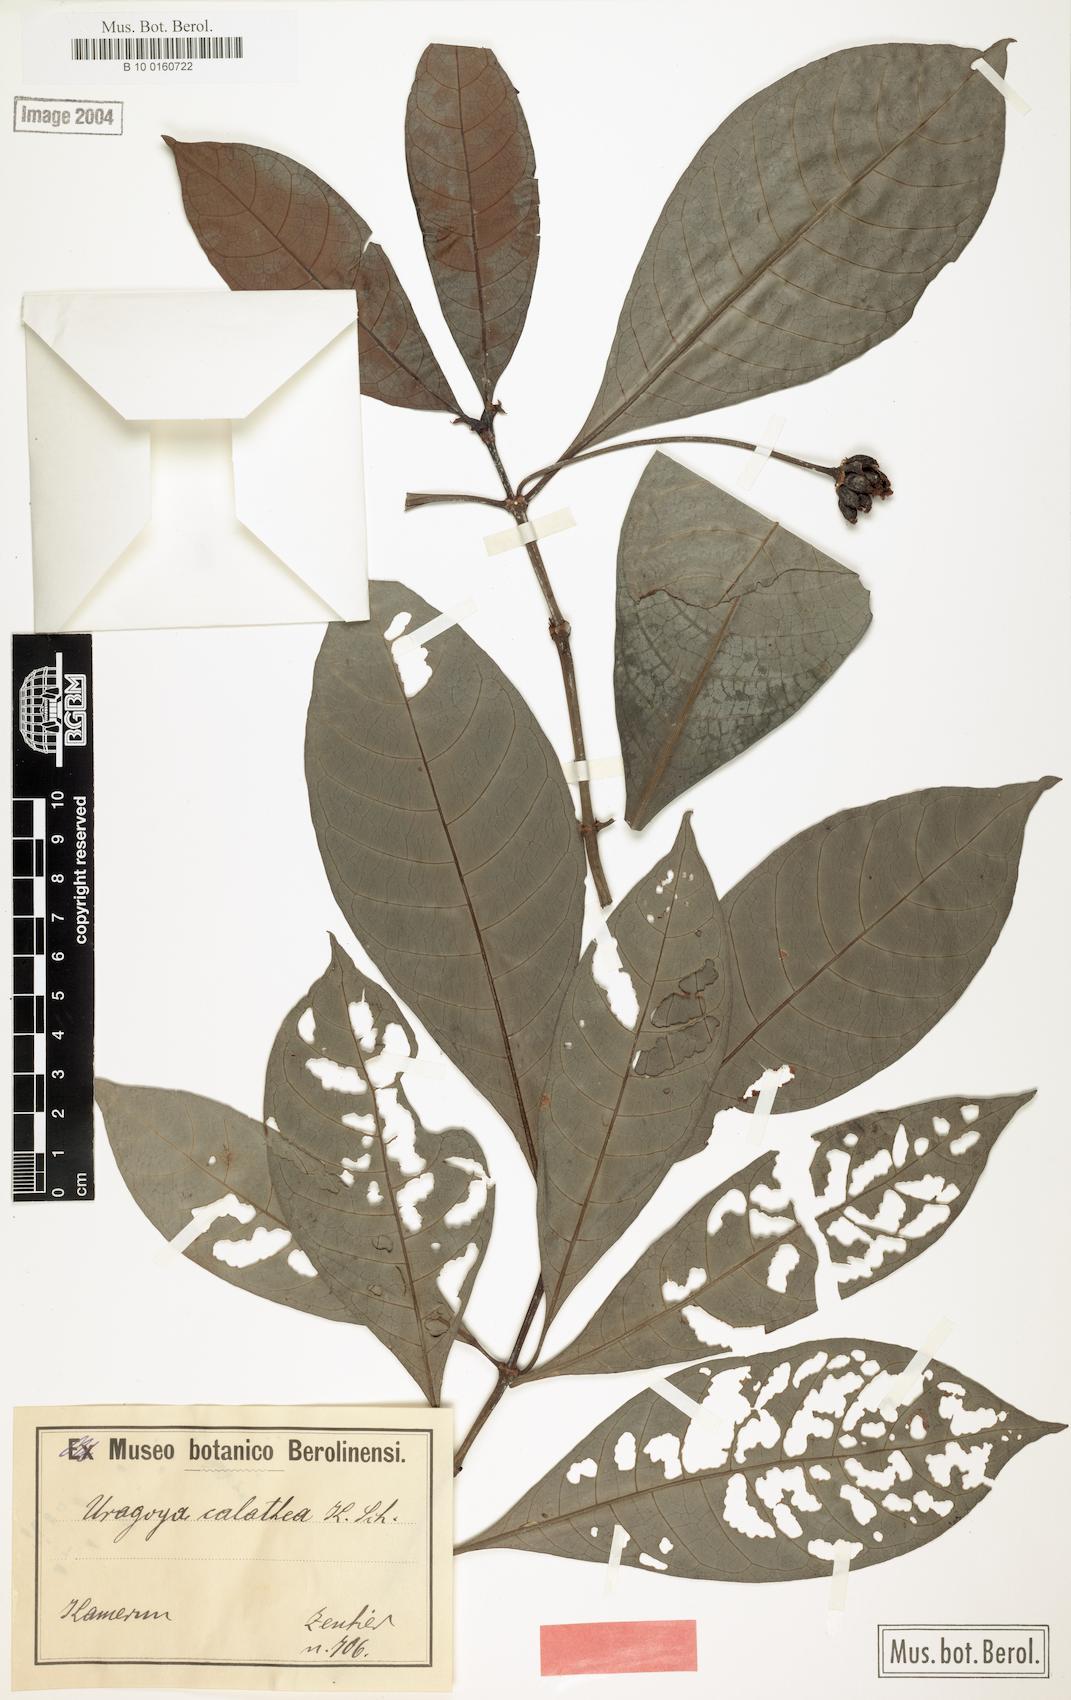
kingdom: Plantae
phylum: Tracheophyta
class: Magnoliopsida
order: Gentianales
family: Rubiaceae
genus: Psychotria
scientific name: Psychotria peduncularis
